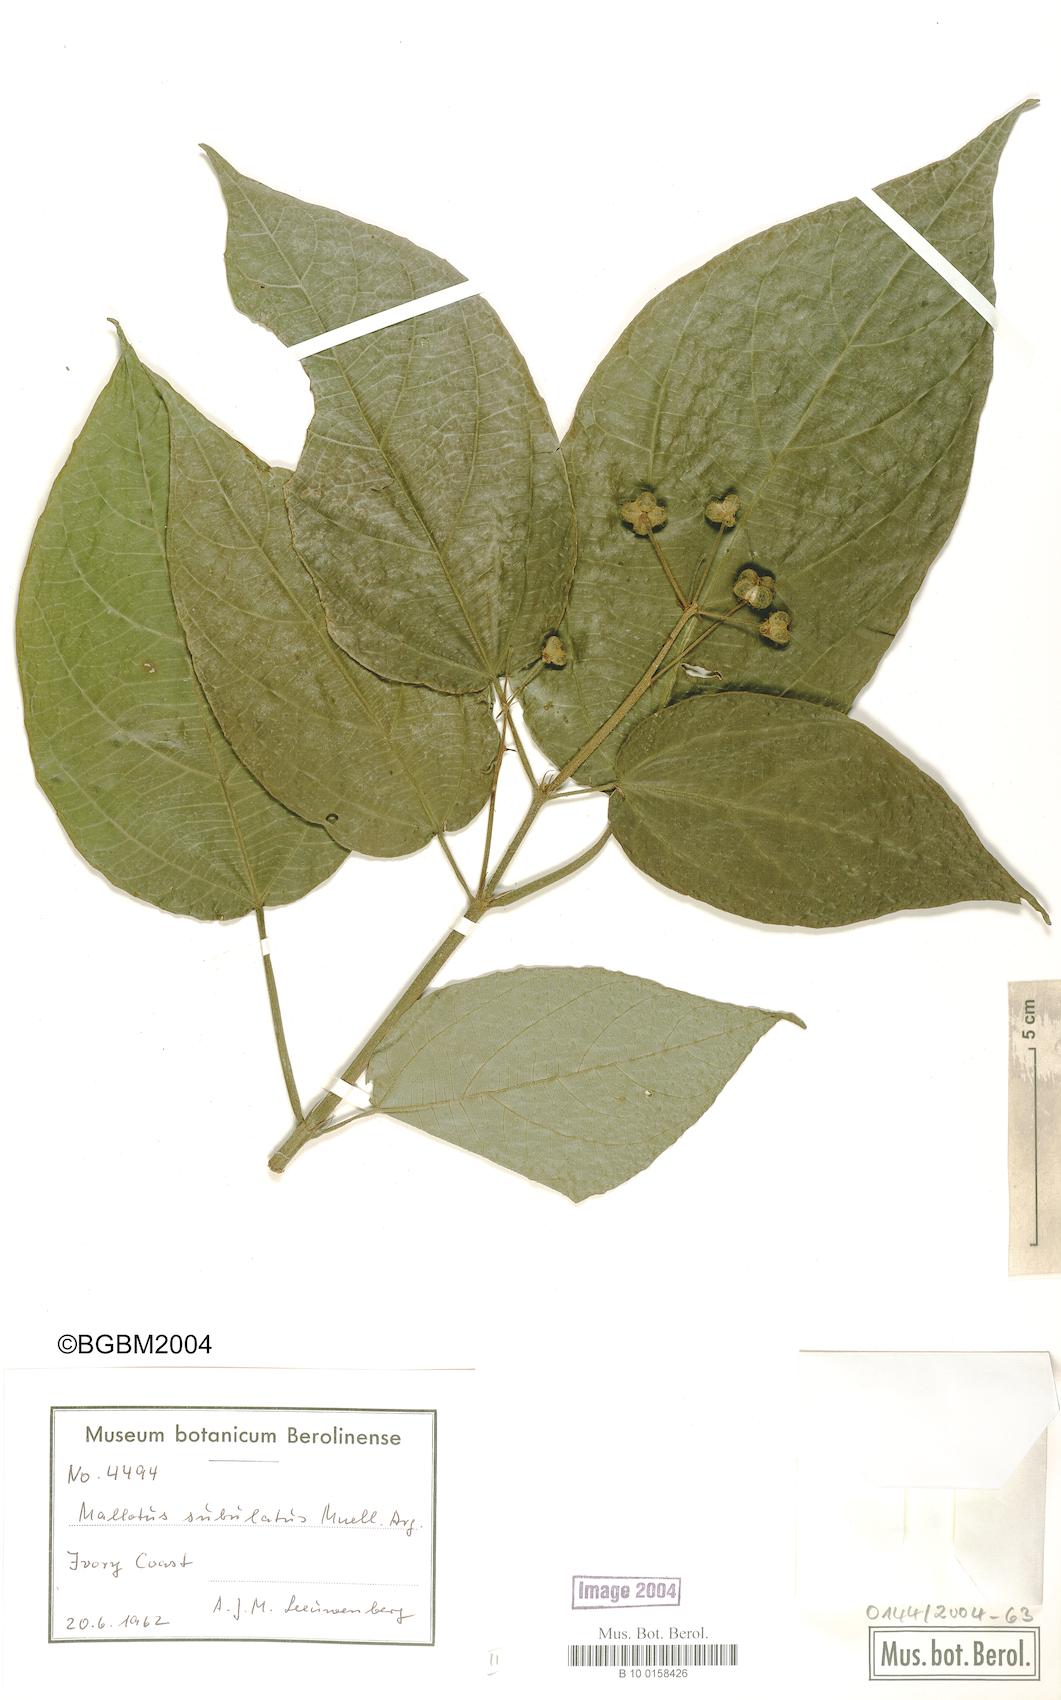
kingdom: Plantae
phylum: Tracheophyta
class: Magnoliopsida
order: Malpighiales
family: Euphorbiaceae
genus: Mallotus
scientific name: Mallotus subulatus
